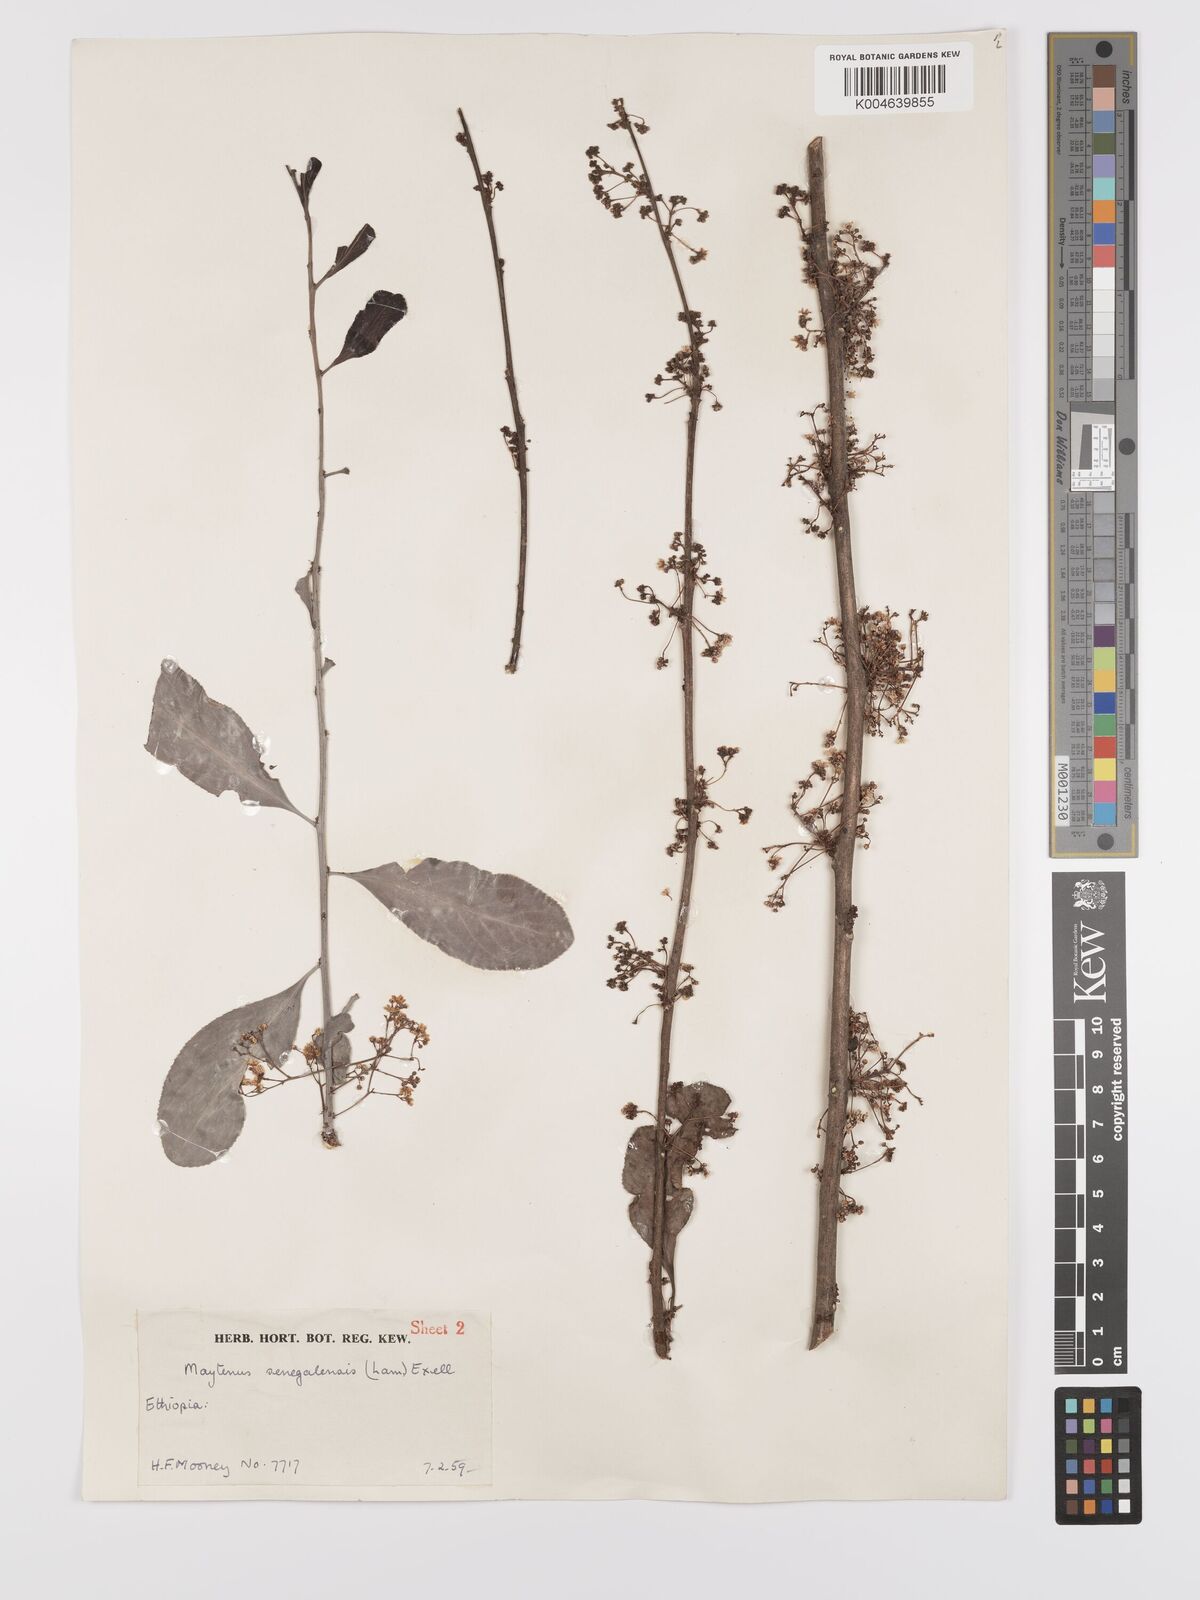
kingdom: Plantae
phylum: Tracheophyta
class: Magnoliopsida
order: Celastrales
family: Celastraceae
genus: Gymnosporia
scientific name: Gymnosporia senegalensis
